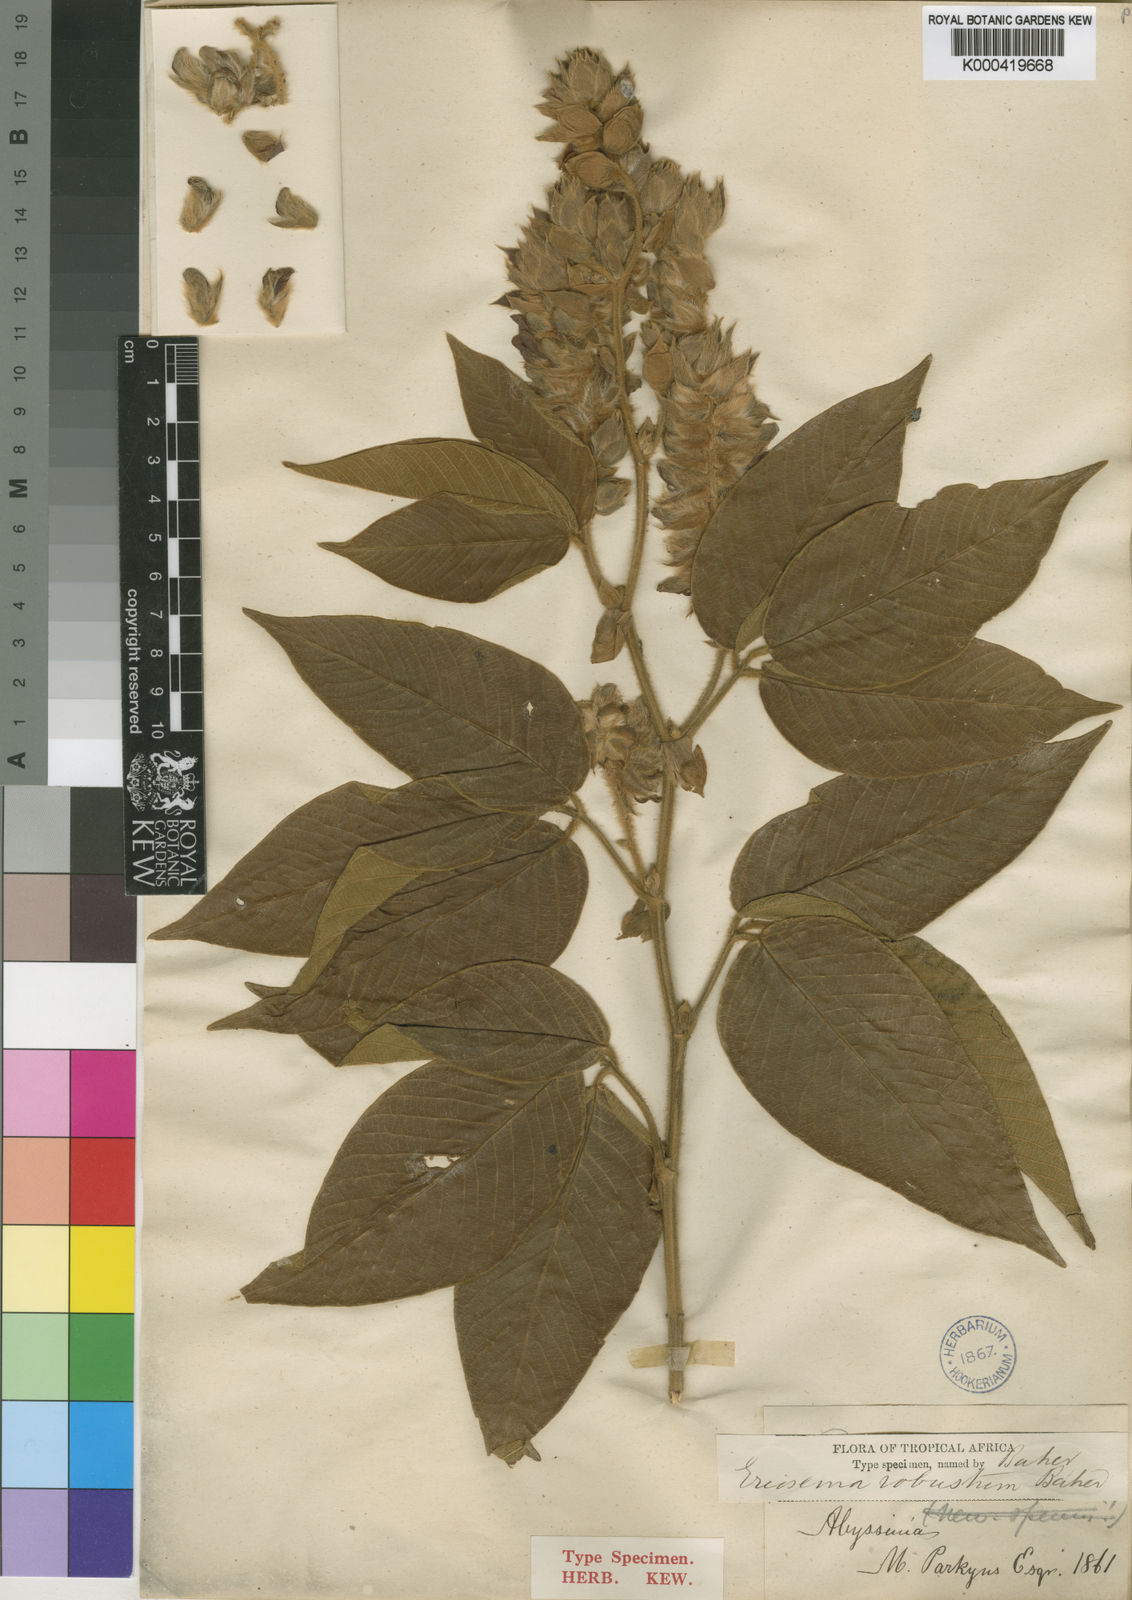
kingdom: Plantae
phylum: Tracheophyta
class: Magnoliopsida
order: Fabales
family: Fabaceae
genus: Eriosema
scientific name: Eriosema robustum
